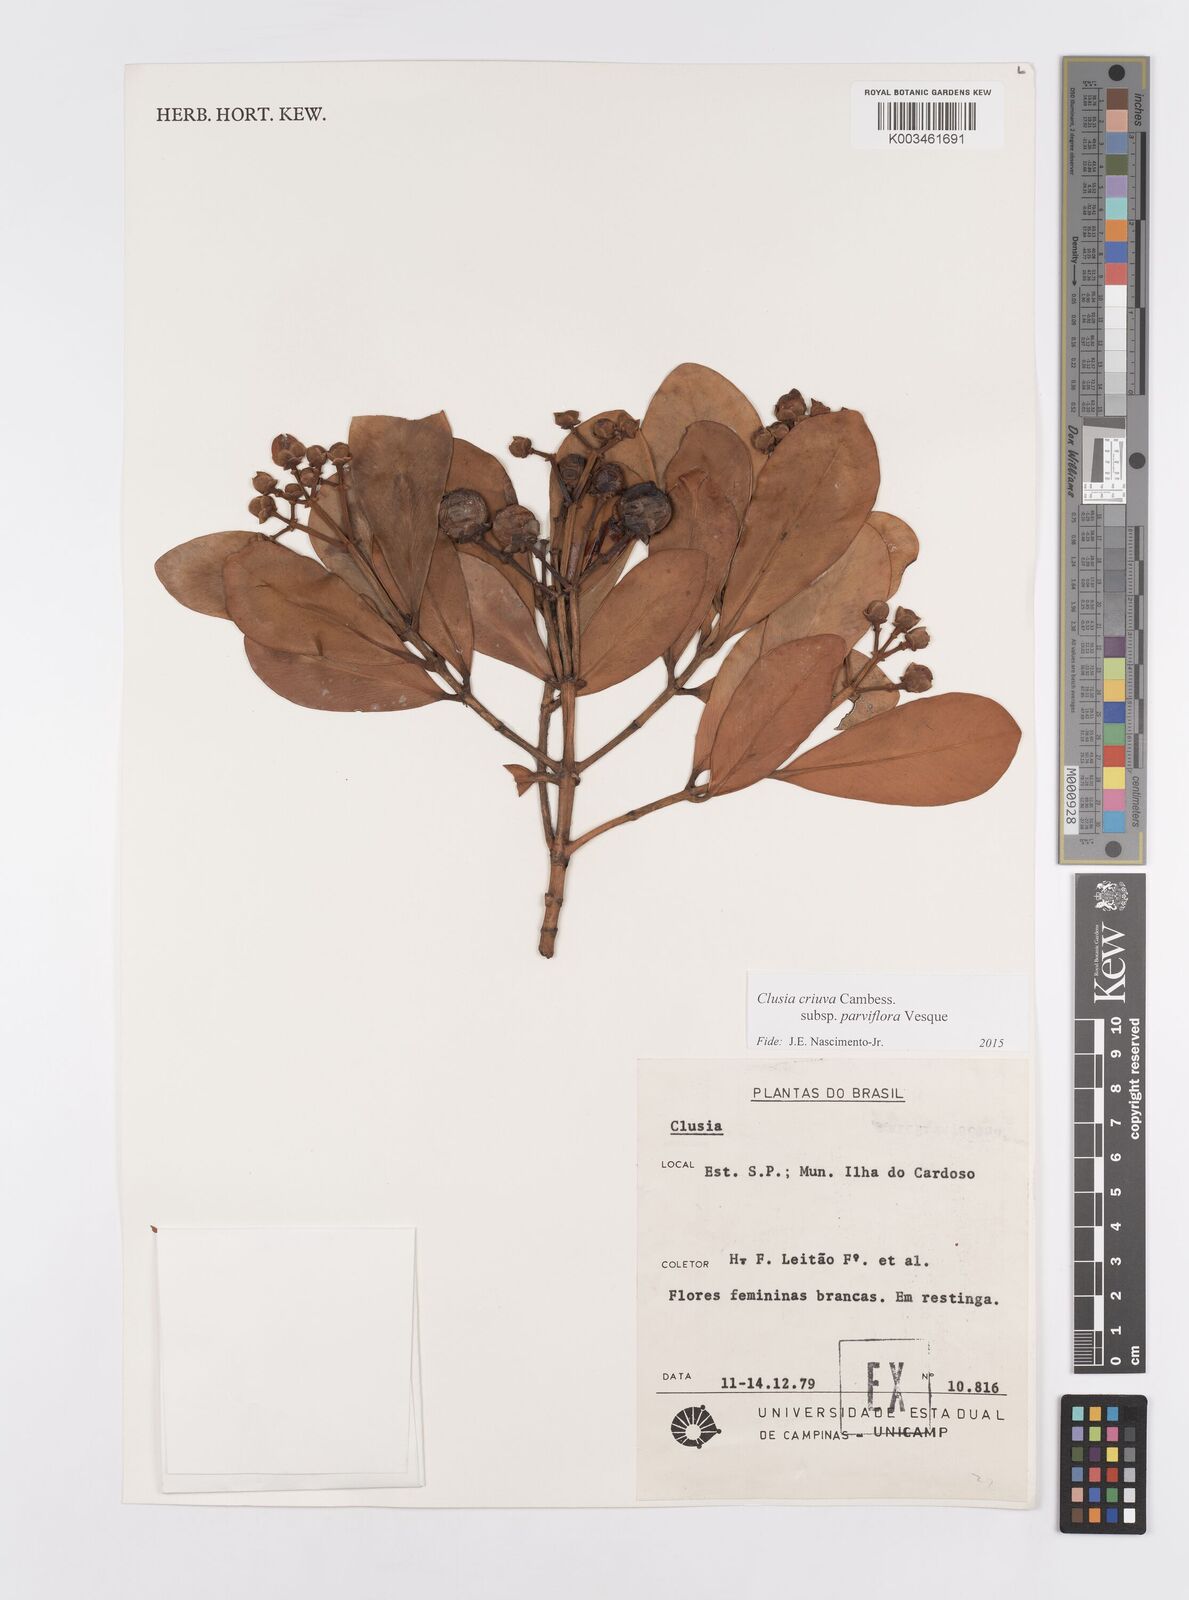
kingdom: Plantae
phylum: Tracheophyta
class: Magnoliopsida
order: Malpighiales
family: Clusiaceae
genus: Clusia
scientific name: Clusia criuva
